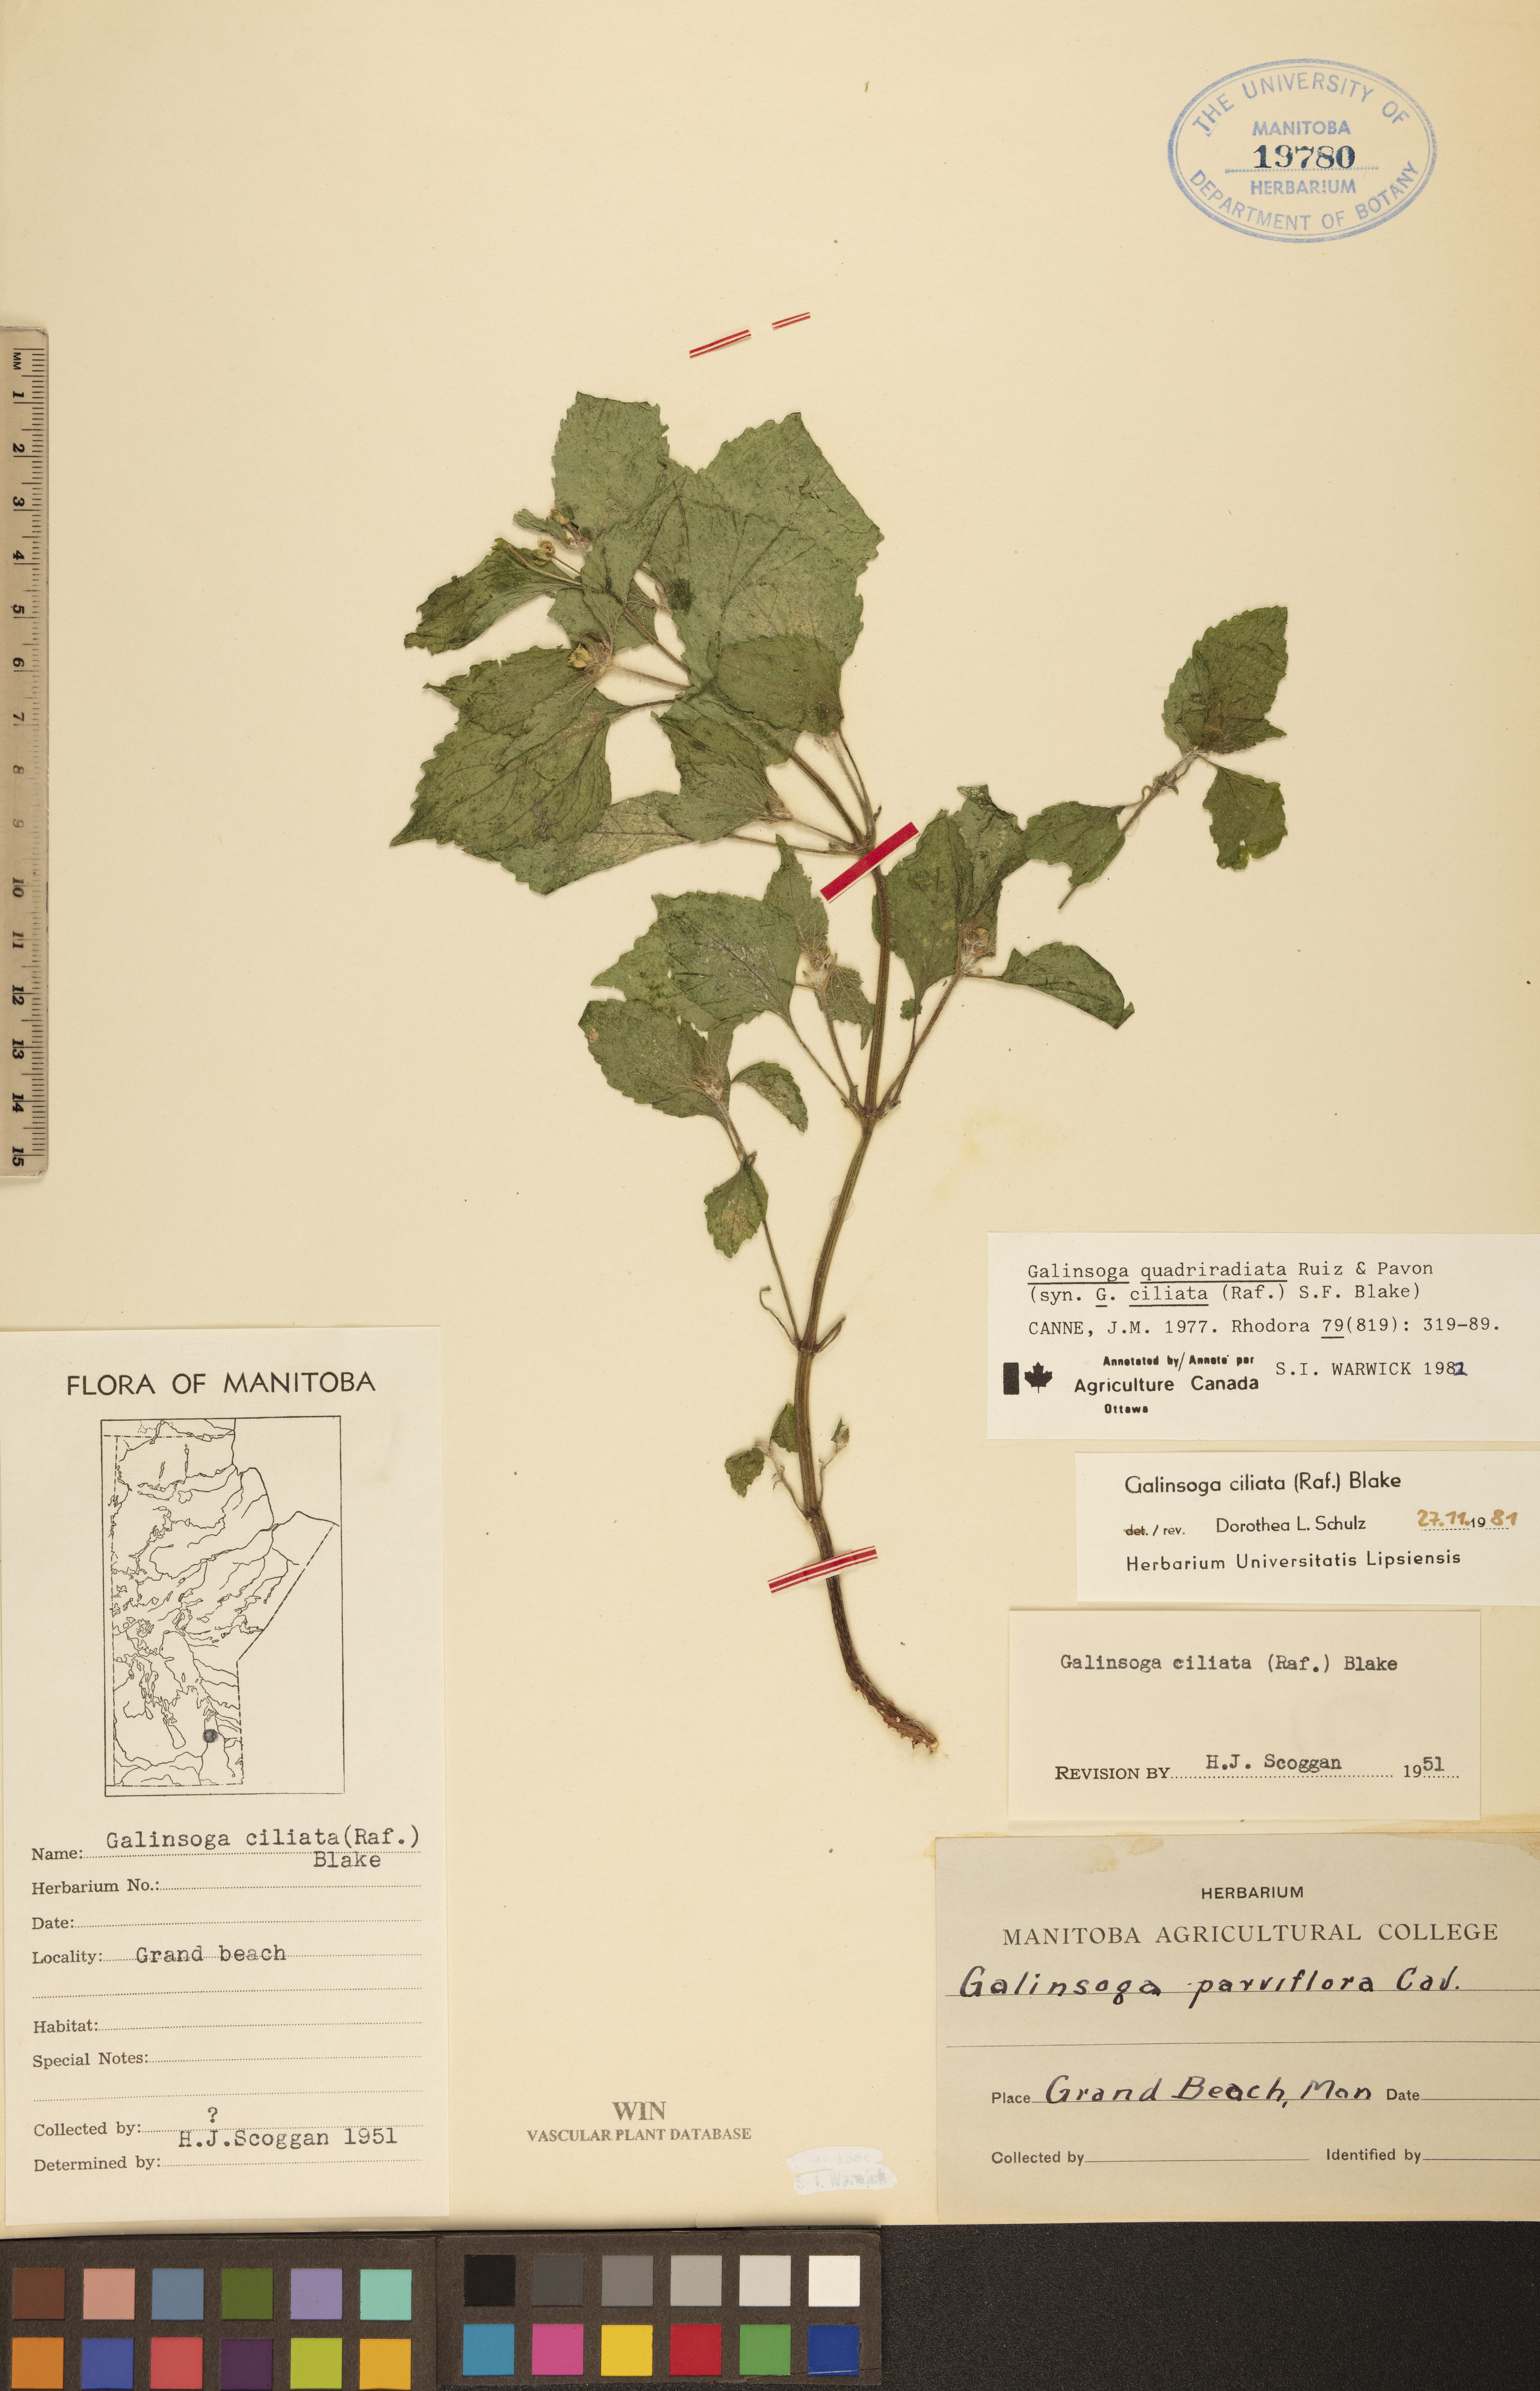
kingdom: Plantae
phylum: Tracheophyta
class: Magnoliopsida
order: Asterales
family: Asteraceae
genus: Galinsoga
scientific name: Galinsoga quadriradiata
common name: Shaggy soldier
